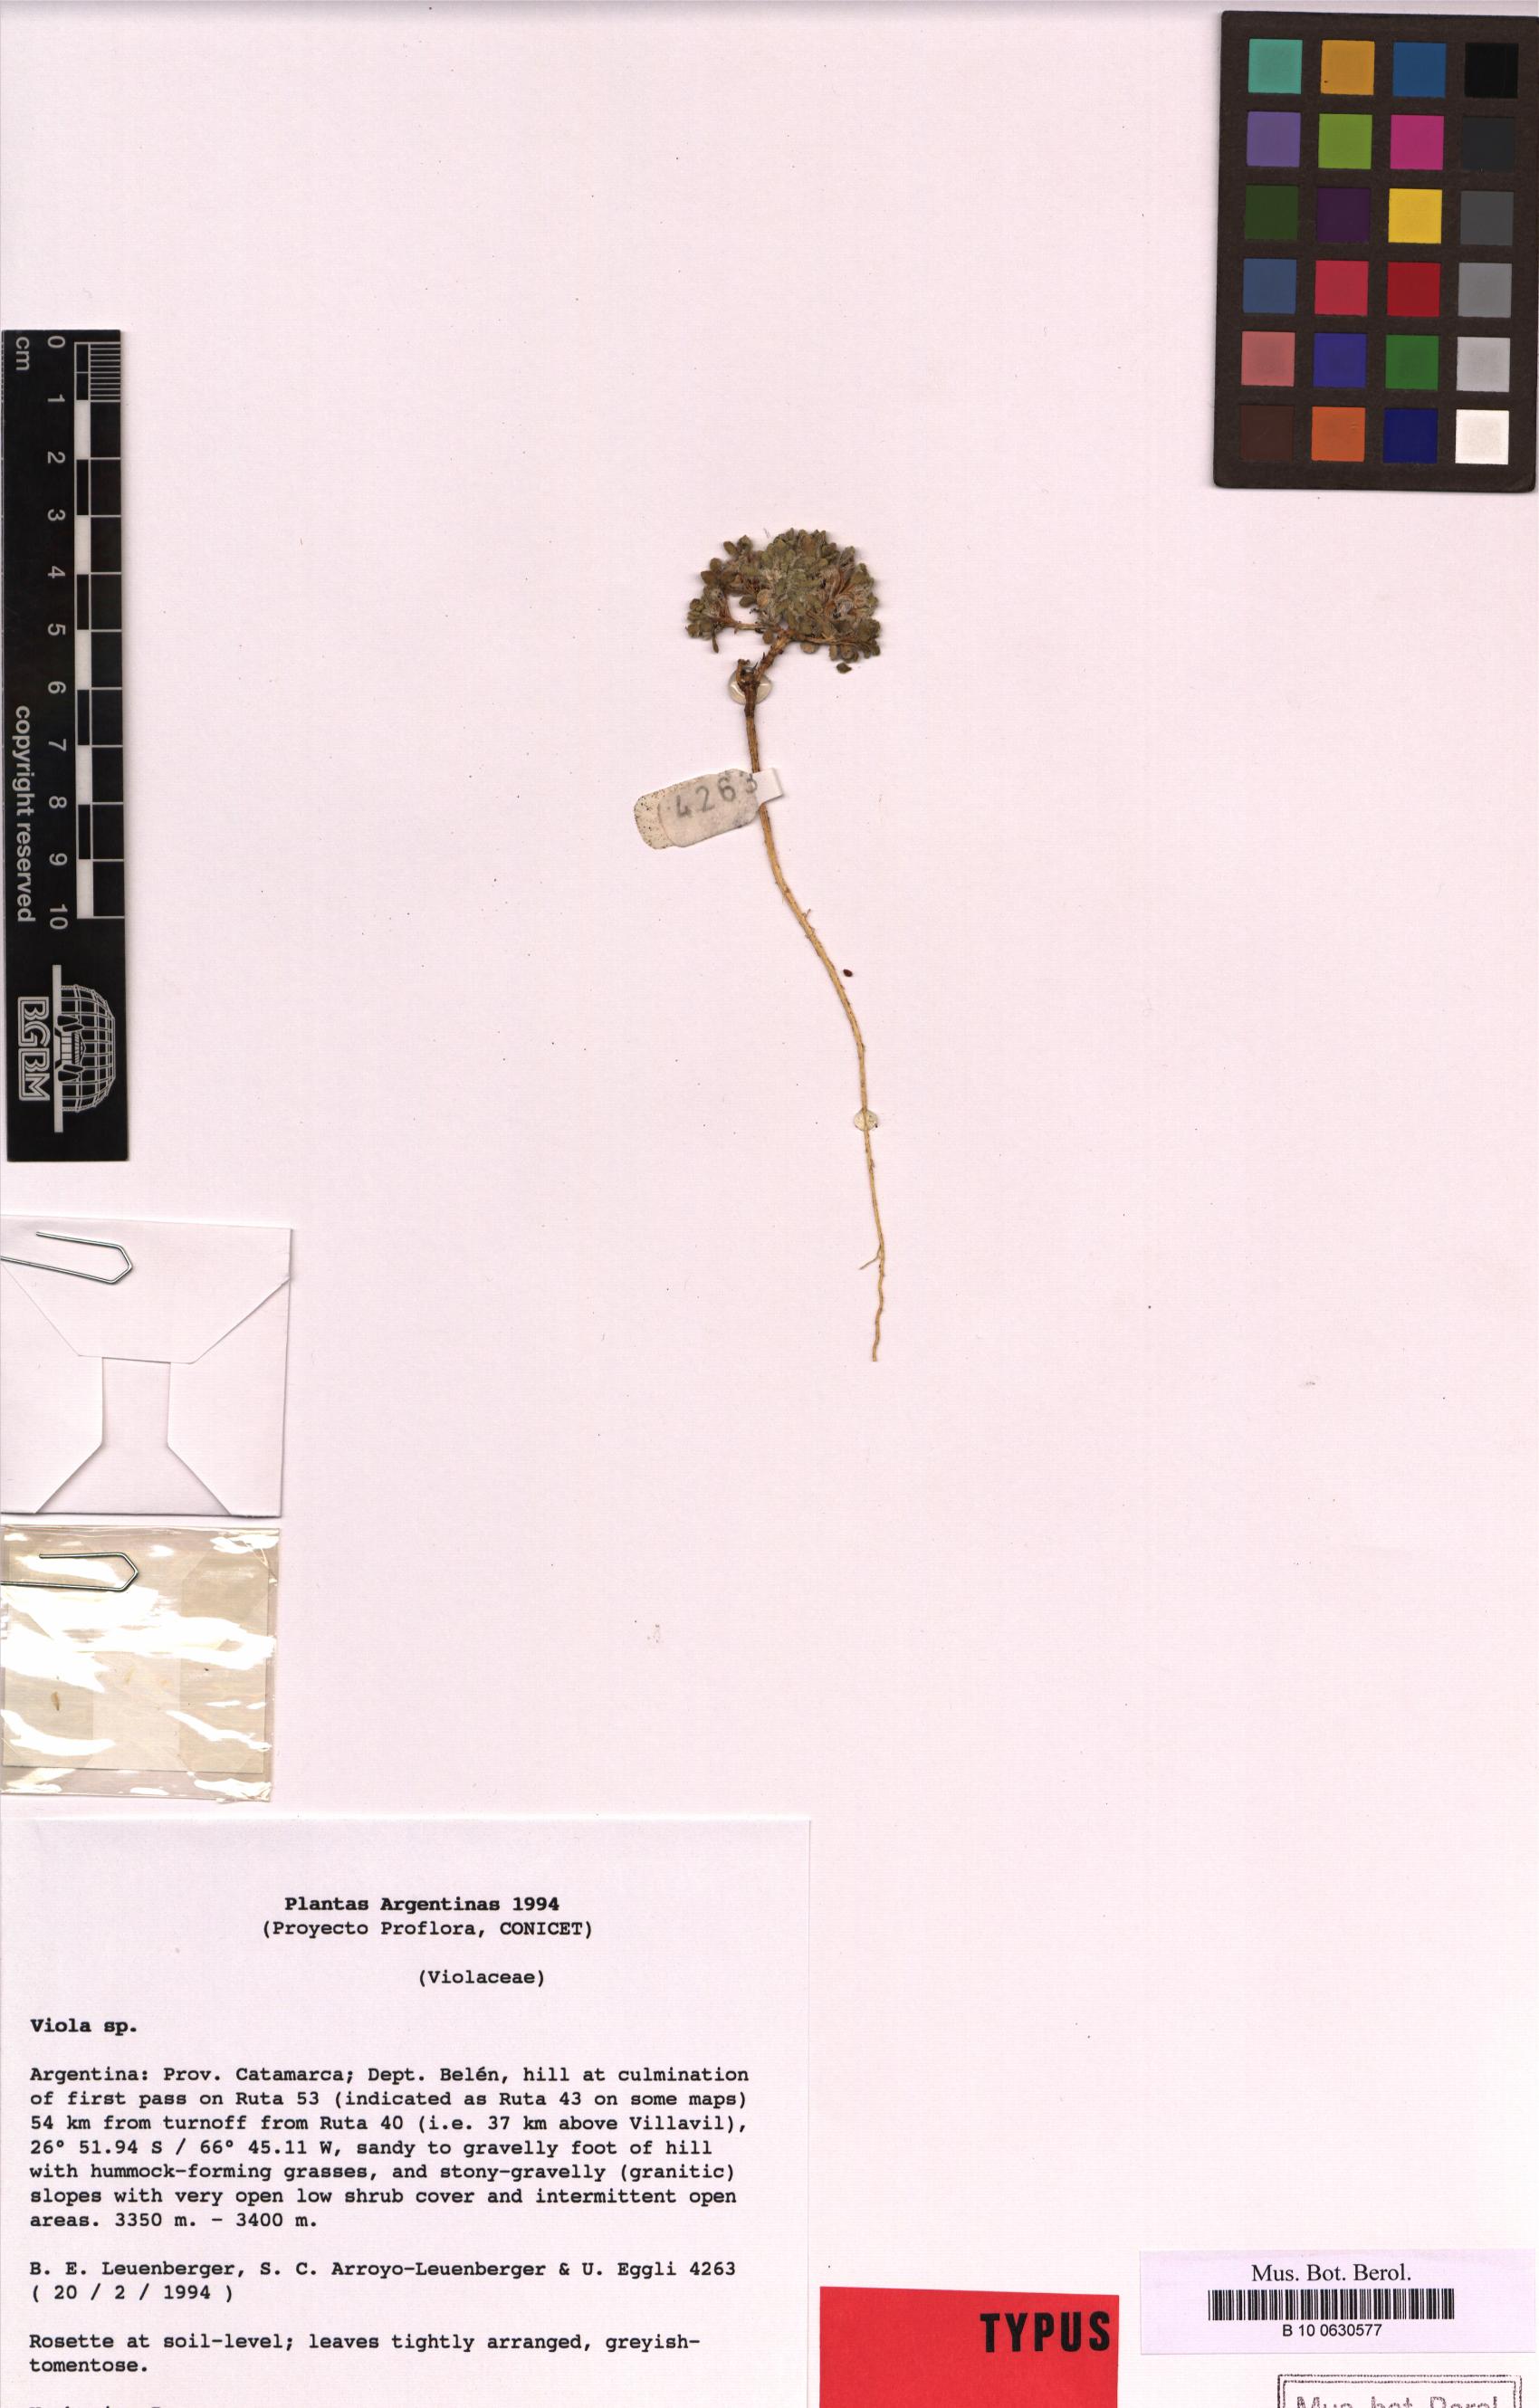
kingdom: Plantae
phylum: Tracheophyta
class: Magnoliopsida
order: Malpighiales
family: Violaceae
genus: Viola
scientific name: Viola
